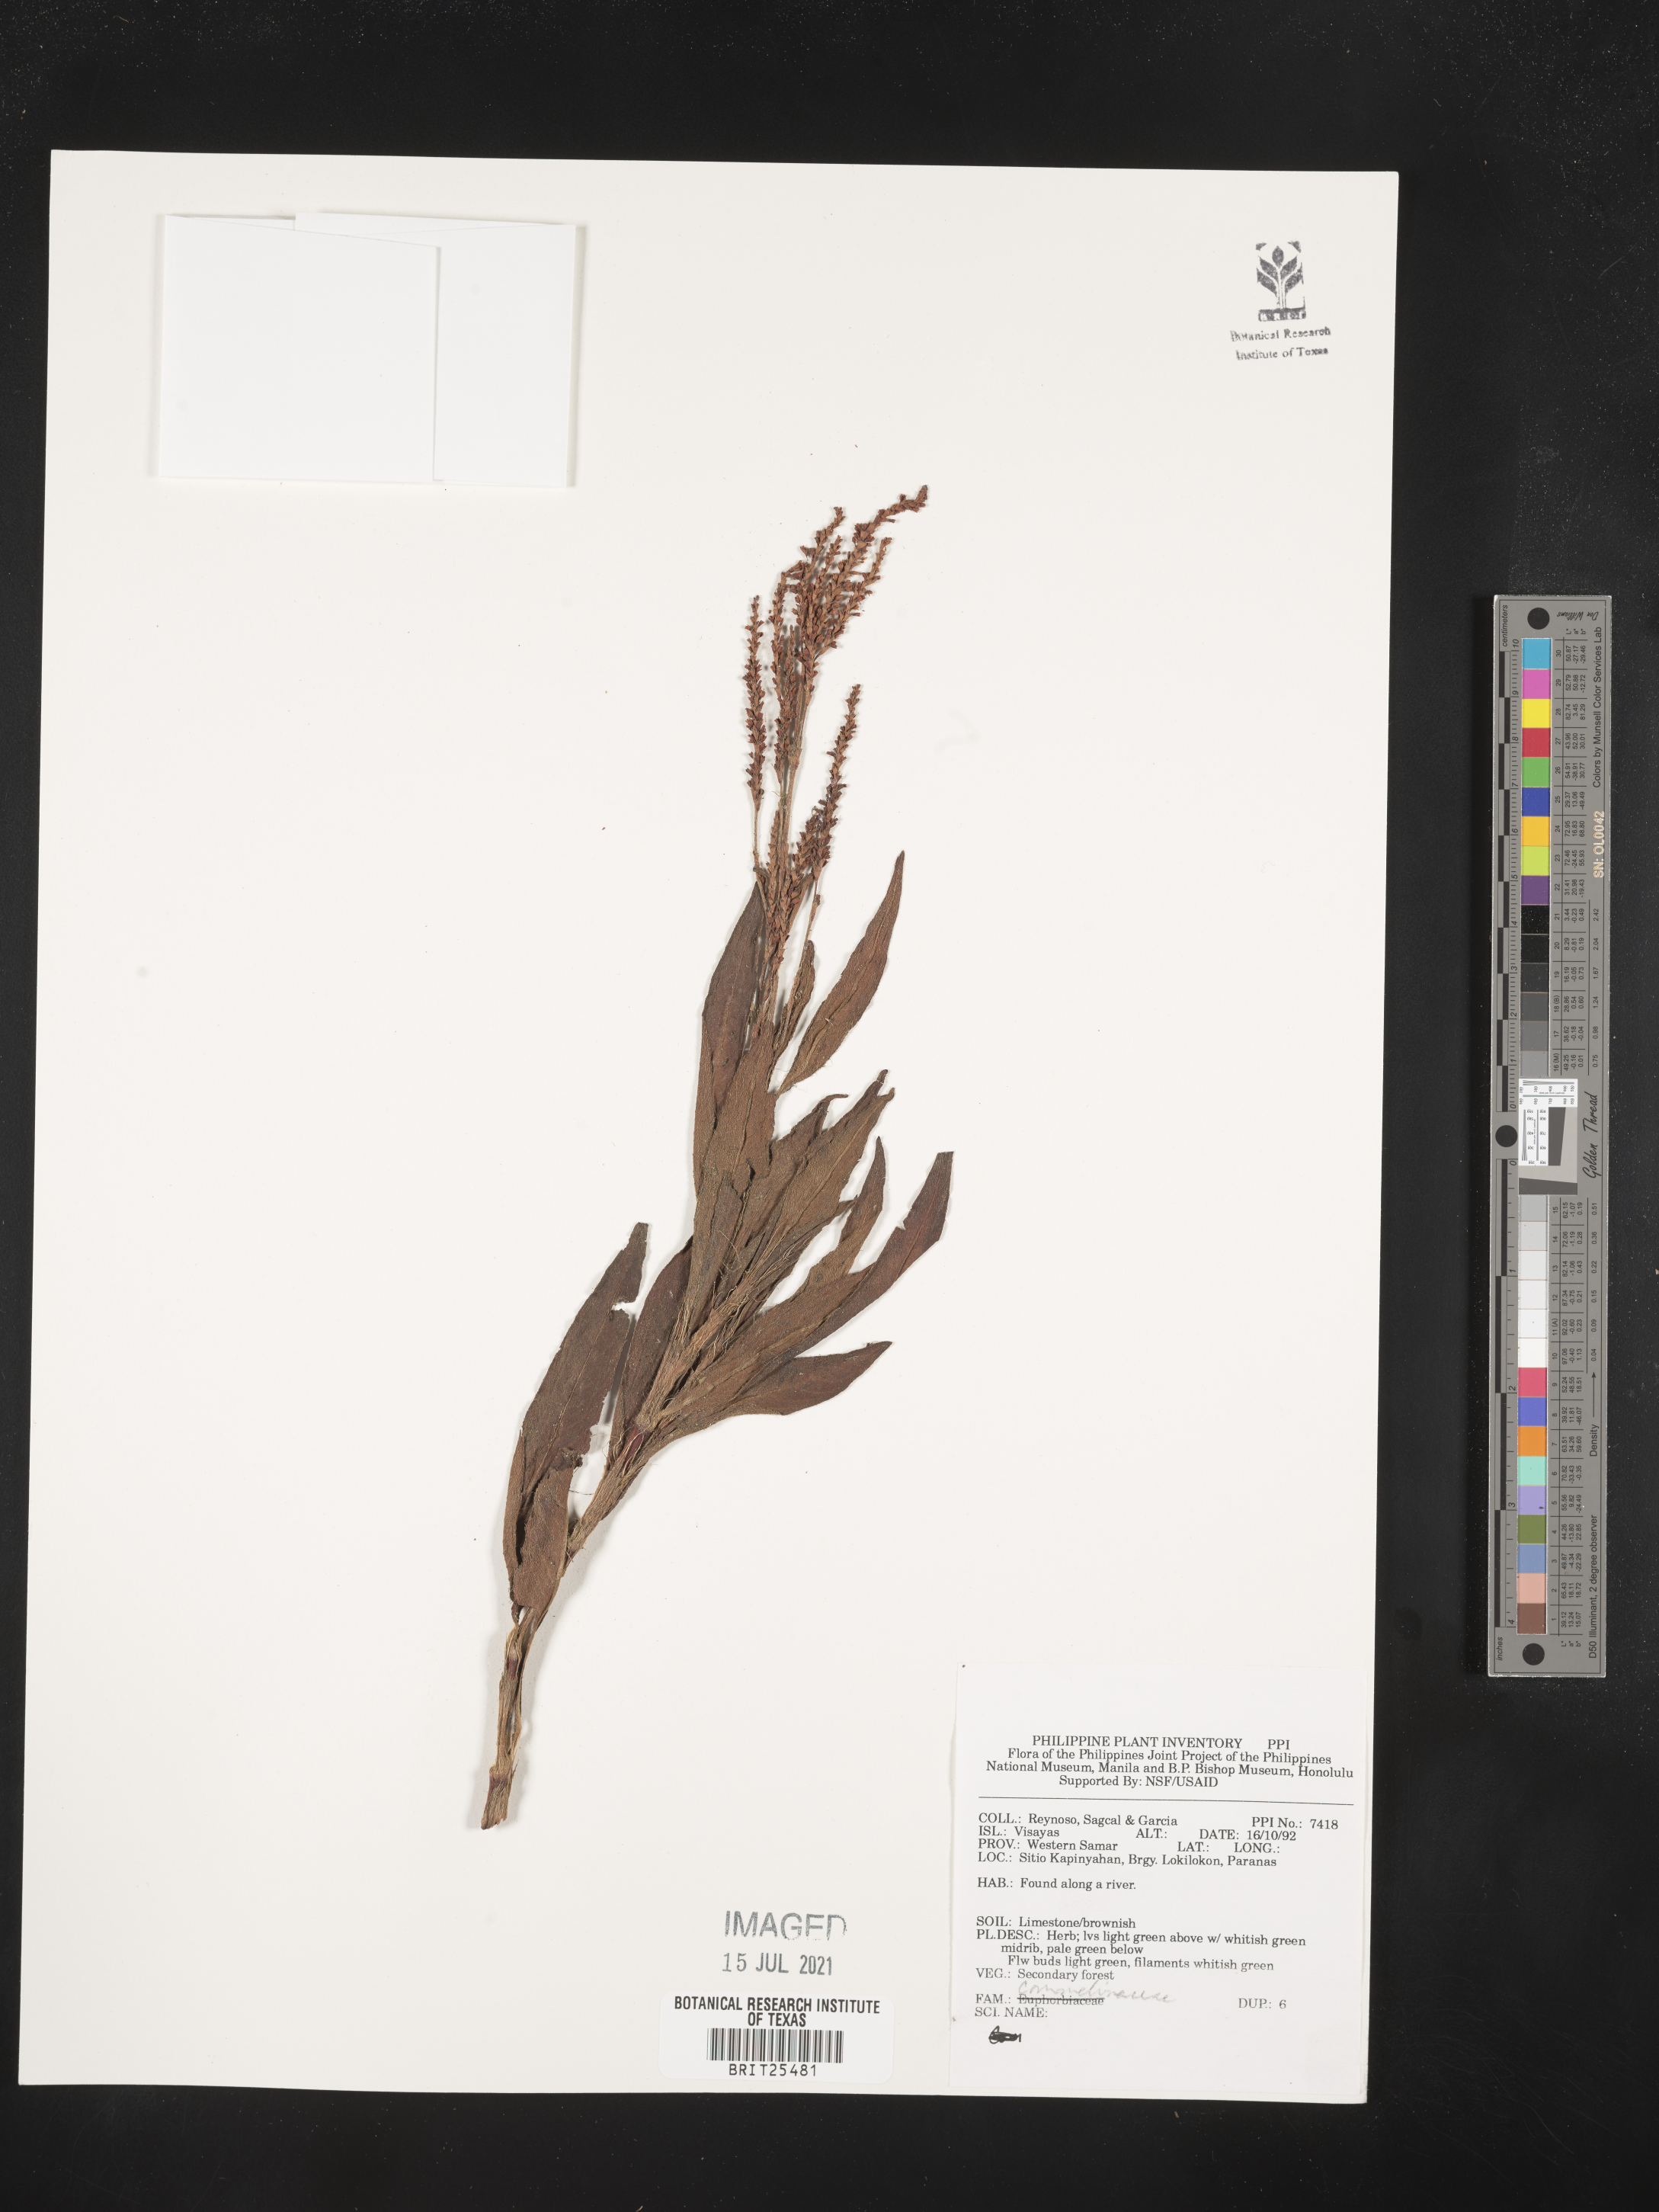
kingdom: Plantae
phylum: Tracheophyta
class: Liliopsida
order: Commelinales
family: Commelinaceae
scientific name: Commelinaceae
